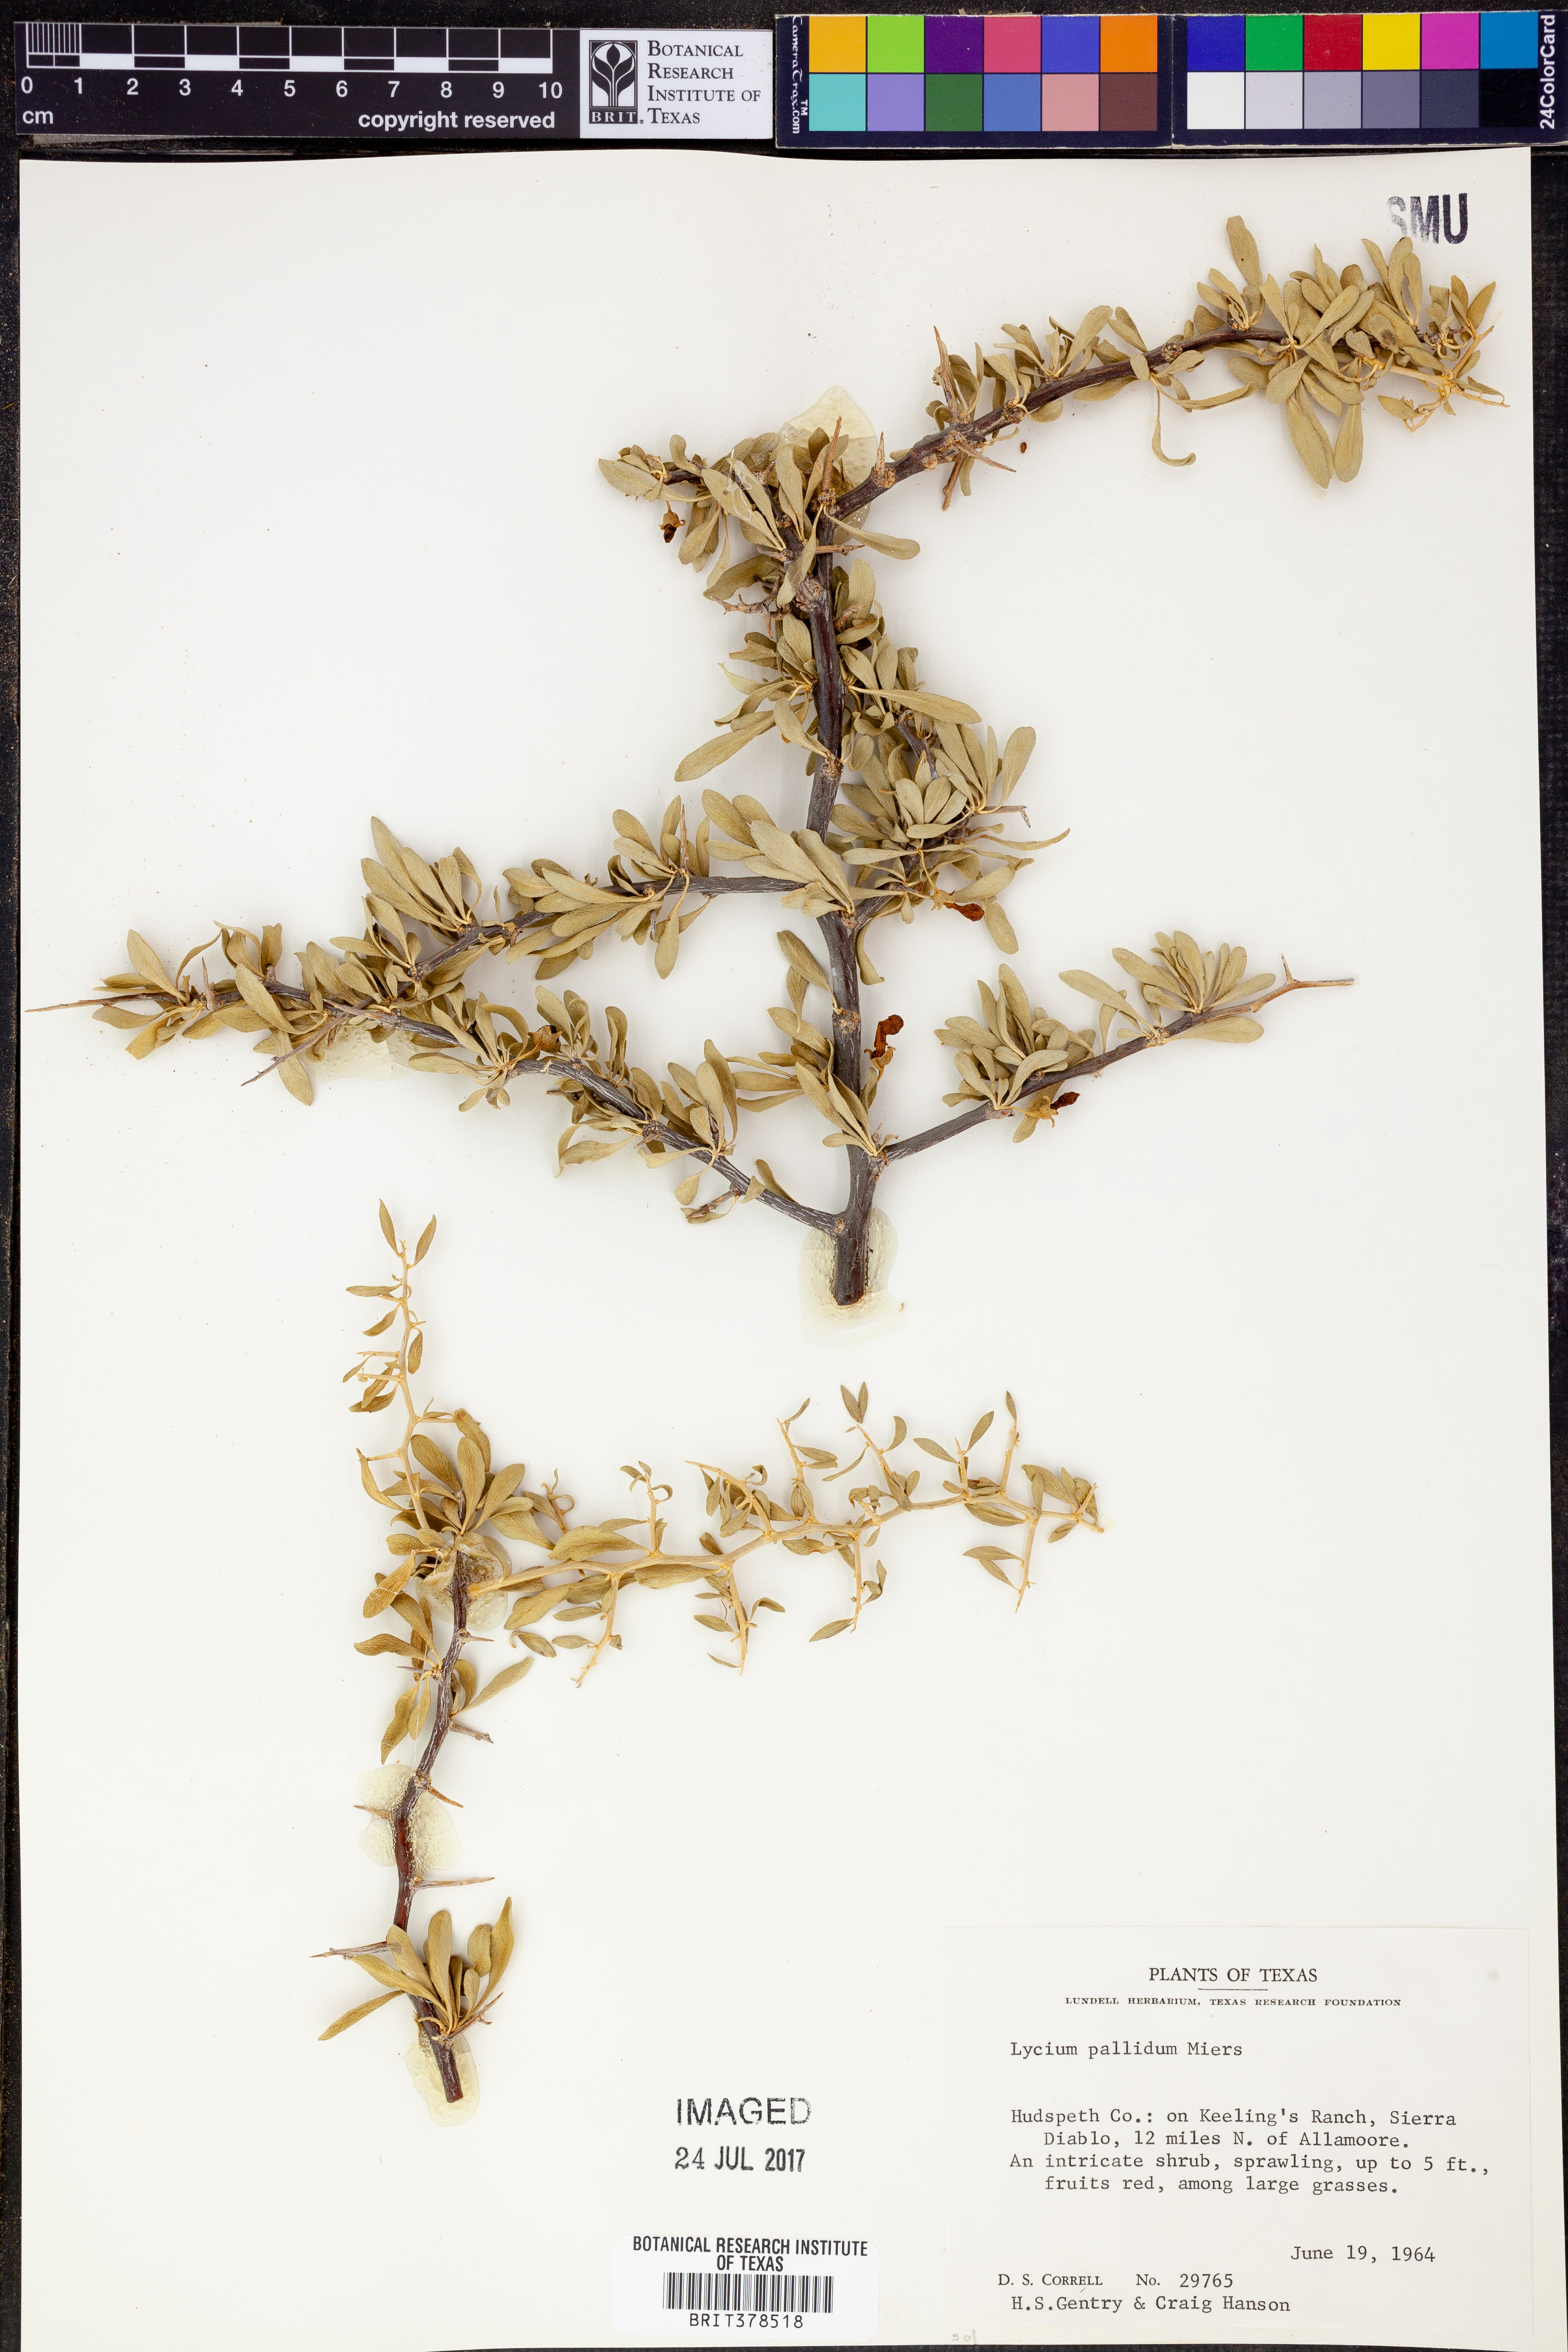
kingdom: Plantae
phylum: Tracheophyta
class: Magnoliopsida
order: Solanales
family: Solanaceae
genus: Lycium
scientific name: Lycium pallidum
